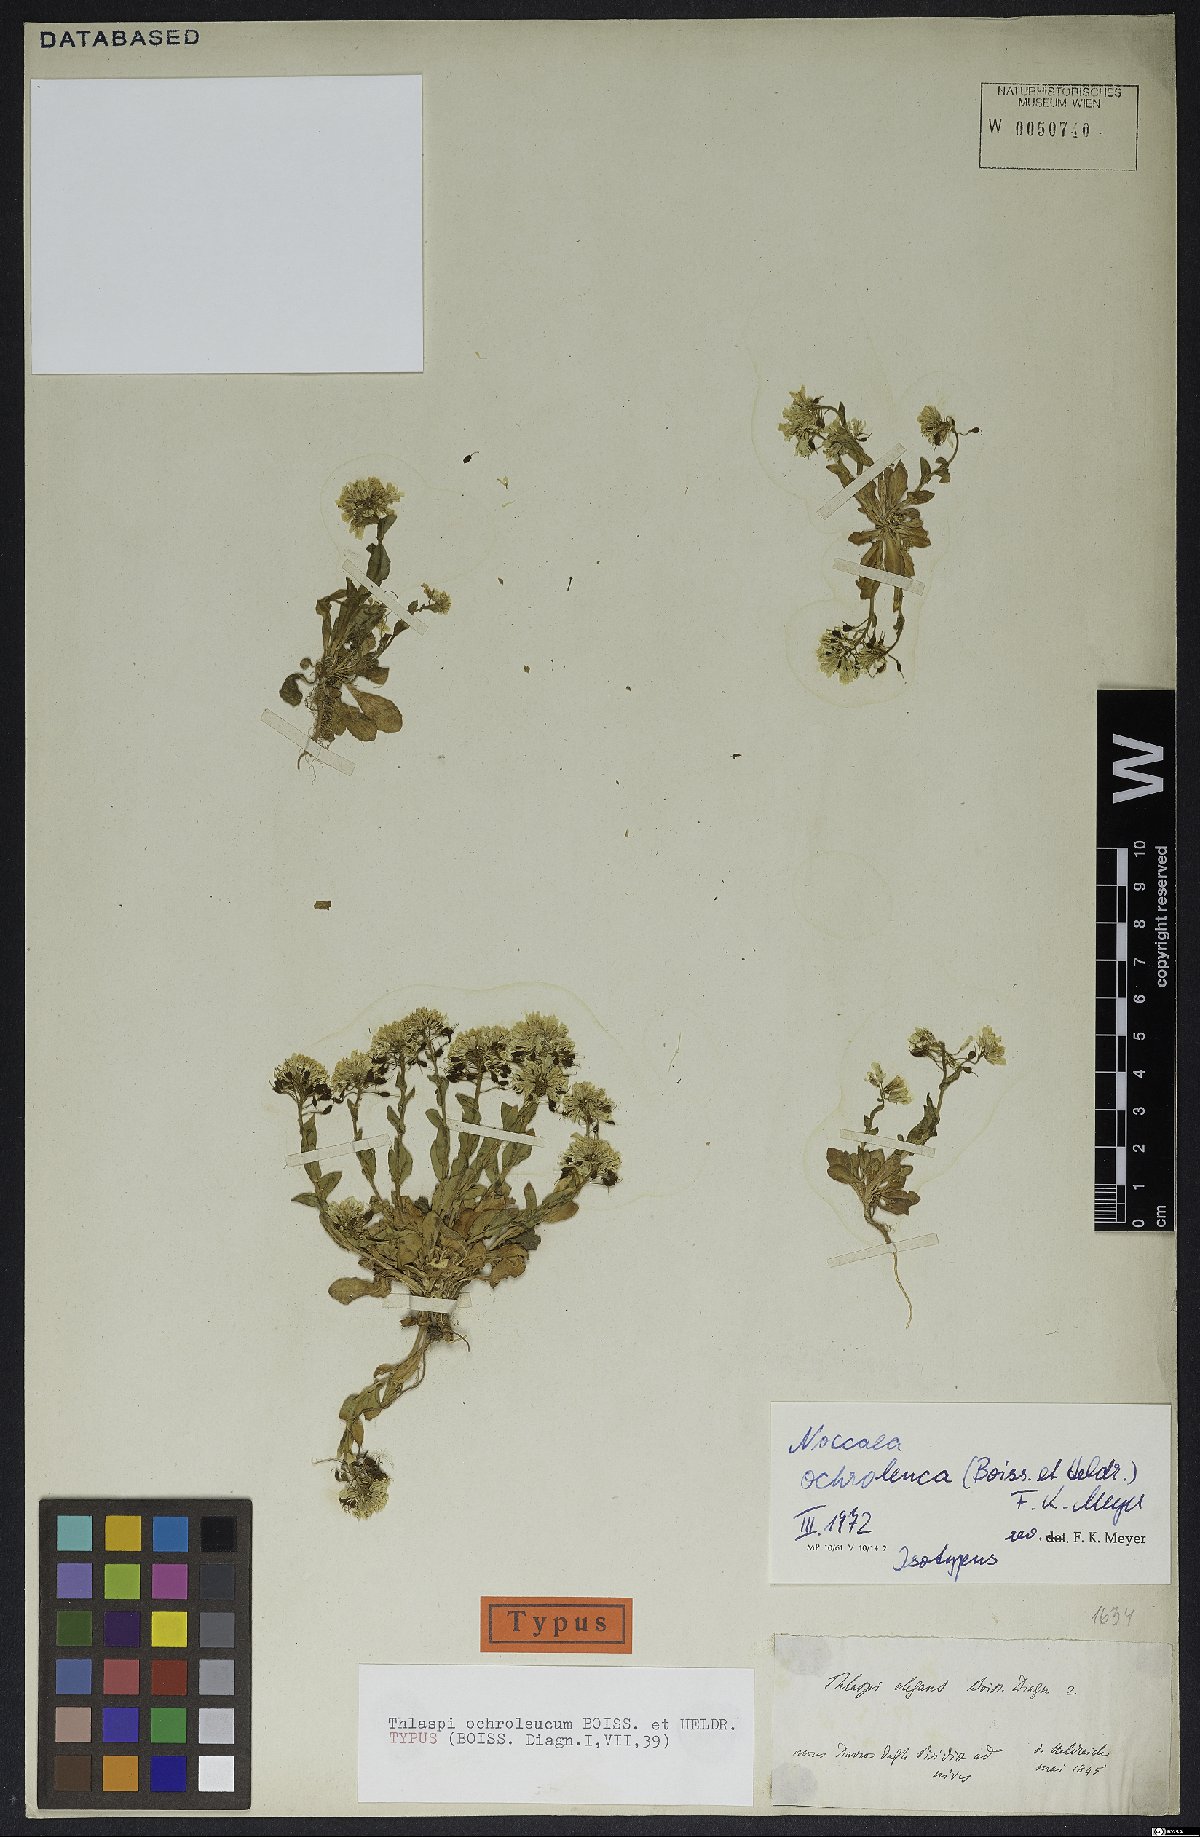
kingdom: Plantae
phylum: Tracheophyta
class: Magnoliopsida
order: Brassicales
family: Brassicaceae
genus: Noccaea
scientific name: Noccaea ochroleuca
